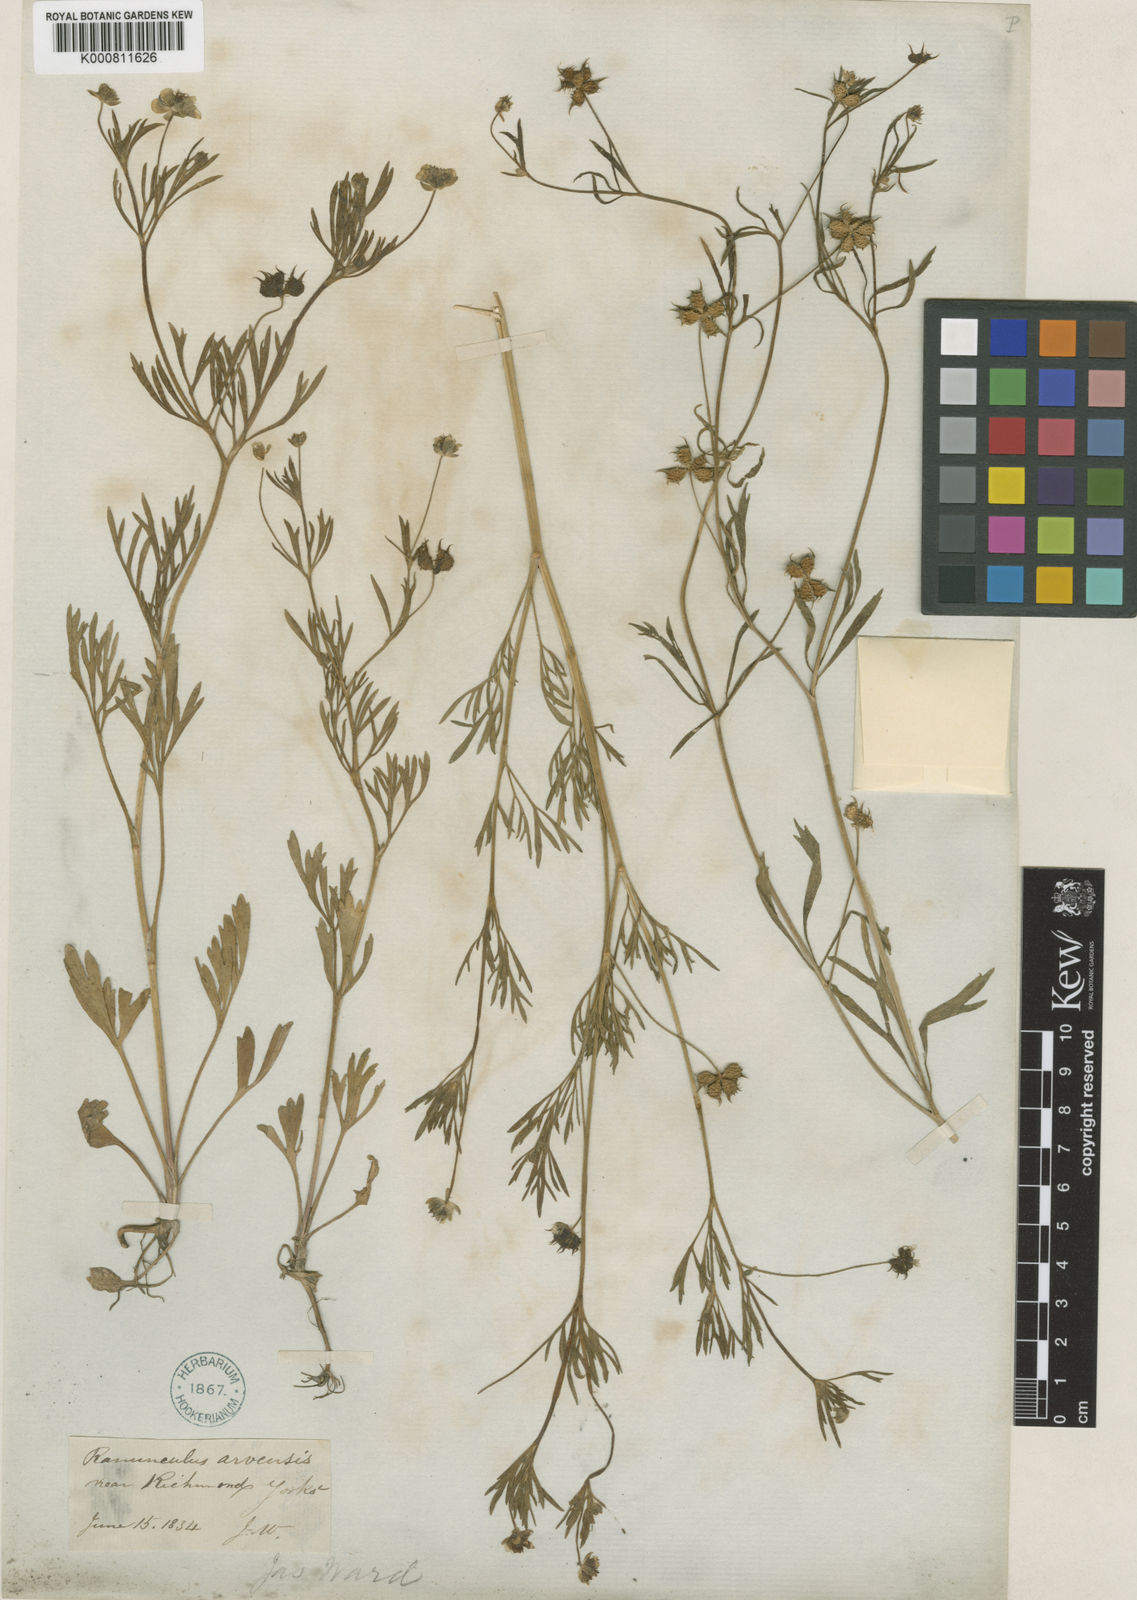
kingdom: Plantae
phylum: Tracheophyta
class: Magnoliopsida
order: Ranunculales
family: Ranunculaceae
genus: Ranunculus
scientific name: Ranunculus arvensis
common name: Corn buttercup
